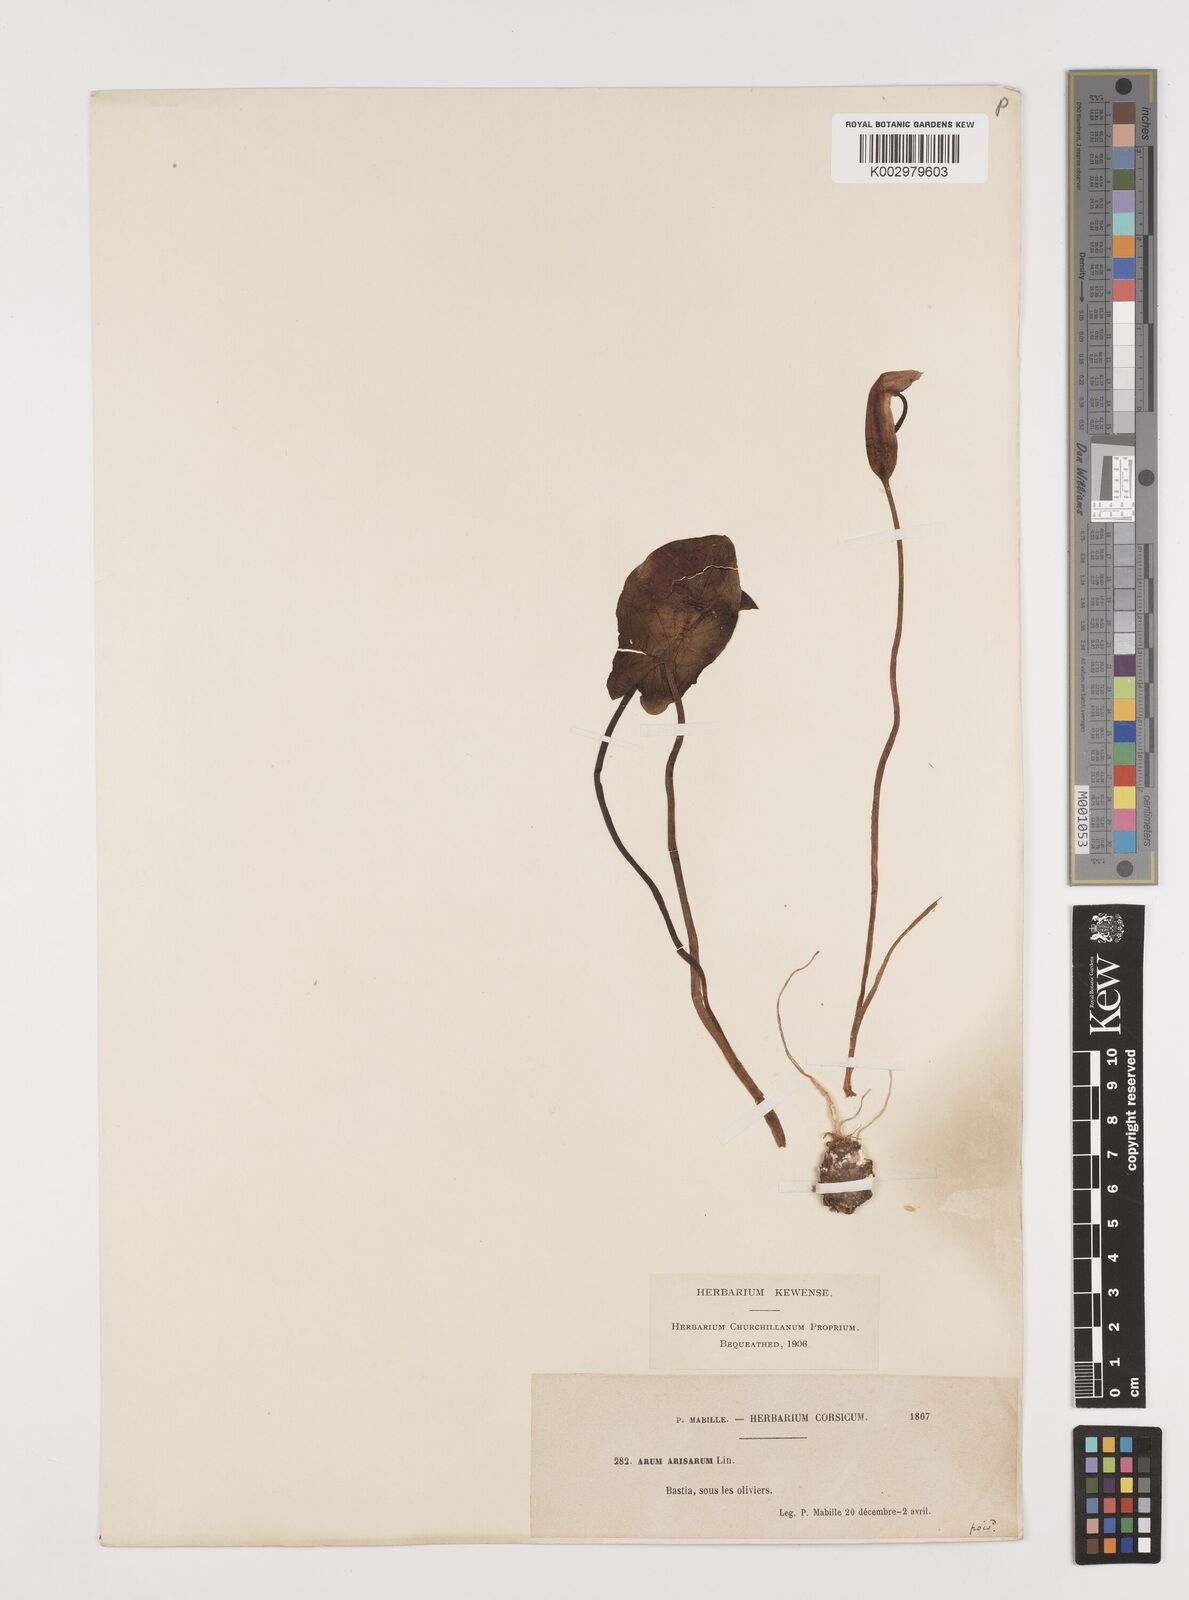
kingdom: Plantae
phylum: Tracheophyta
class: Liliopsida
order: Alismatales
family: Araceae
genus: Arisarum
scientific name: Arisarum vulgare
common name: Common arisarum
